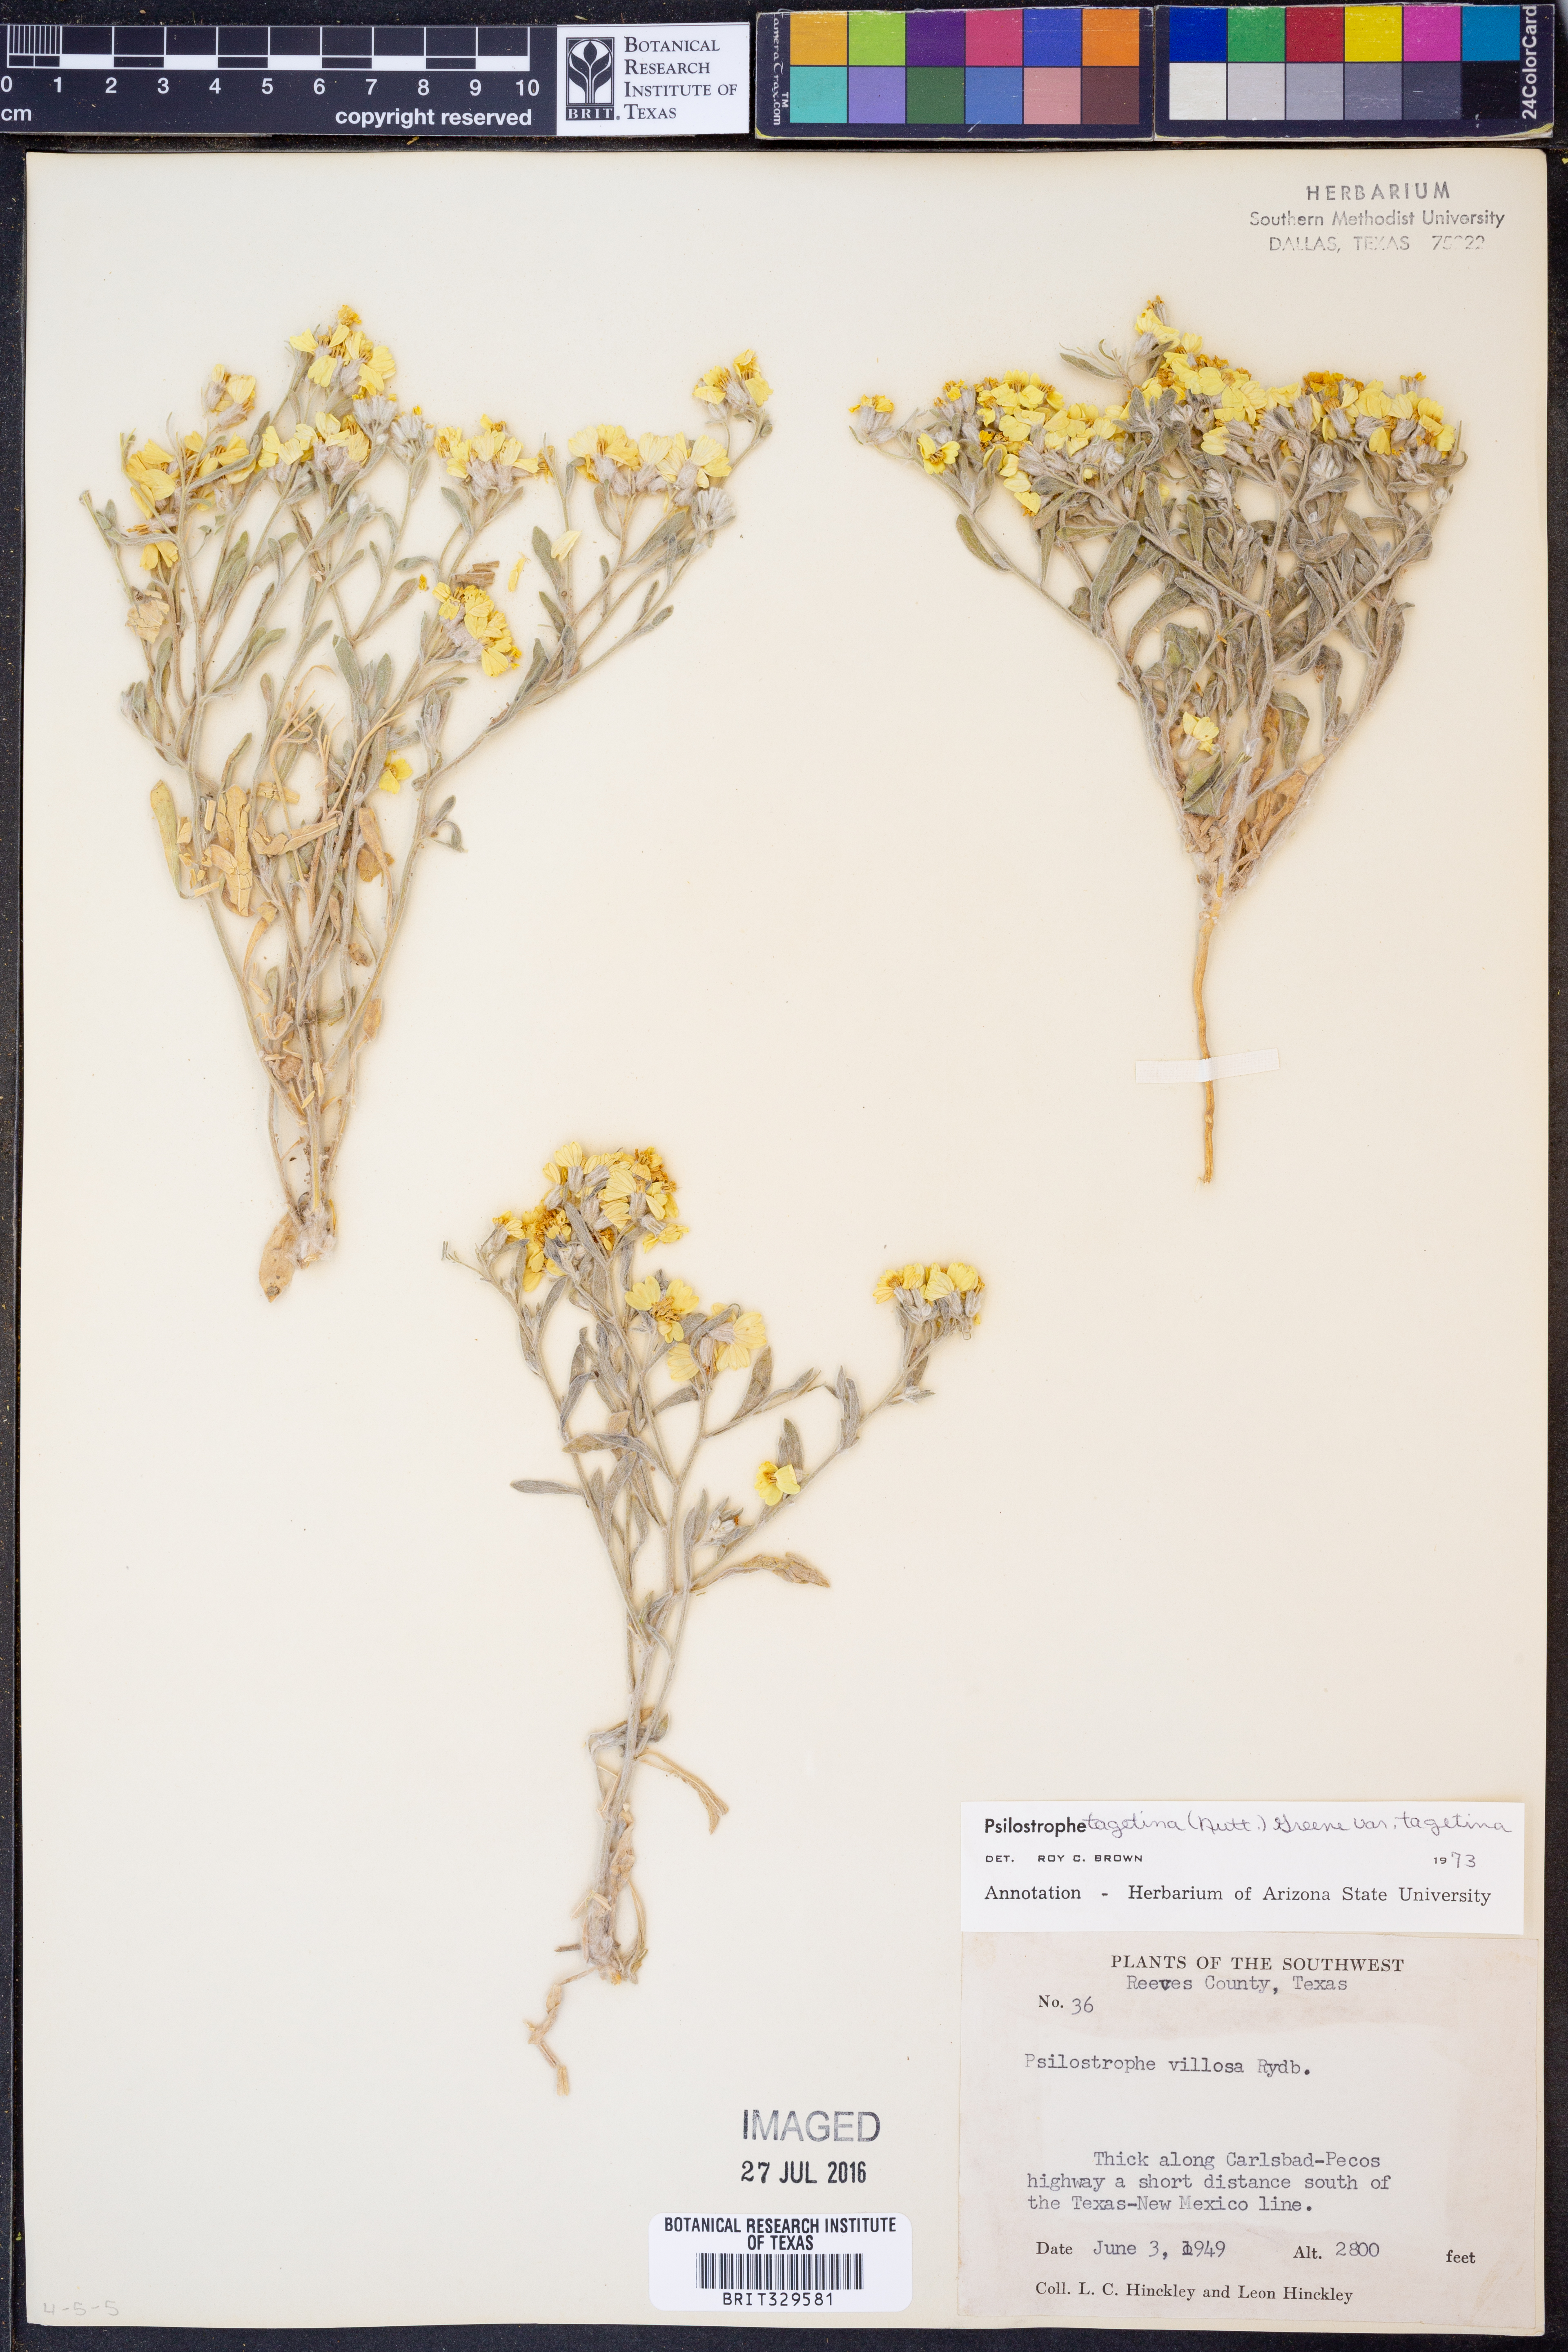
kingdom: Plantae
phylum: Tracheophyta
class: Magnoliopsida
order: Asterales
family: Asteraceae
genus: Psilostrophe
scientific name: Psilostrophe tagetina
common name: Marigold paper-flower
